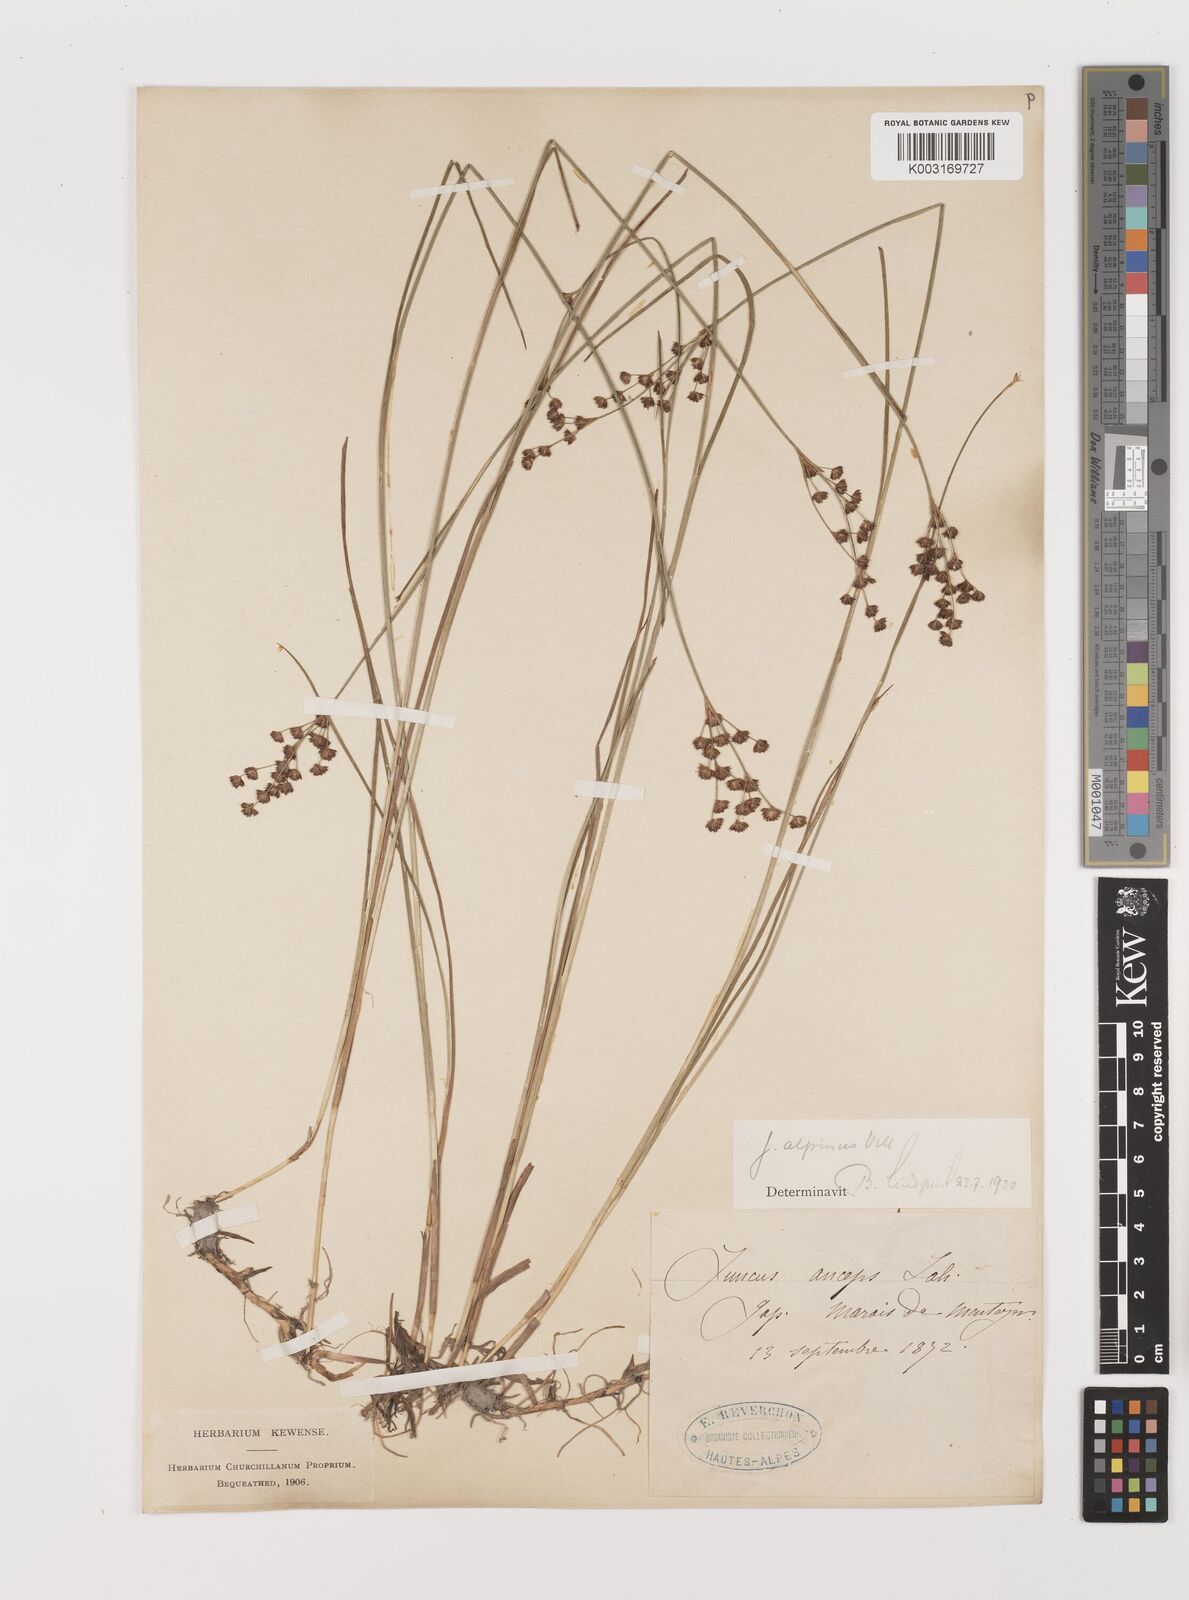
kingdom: Plantae
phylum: Tracheophyta
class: Liliopsida
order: Poales
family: Juncaceae
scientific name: Juncaceae
